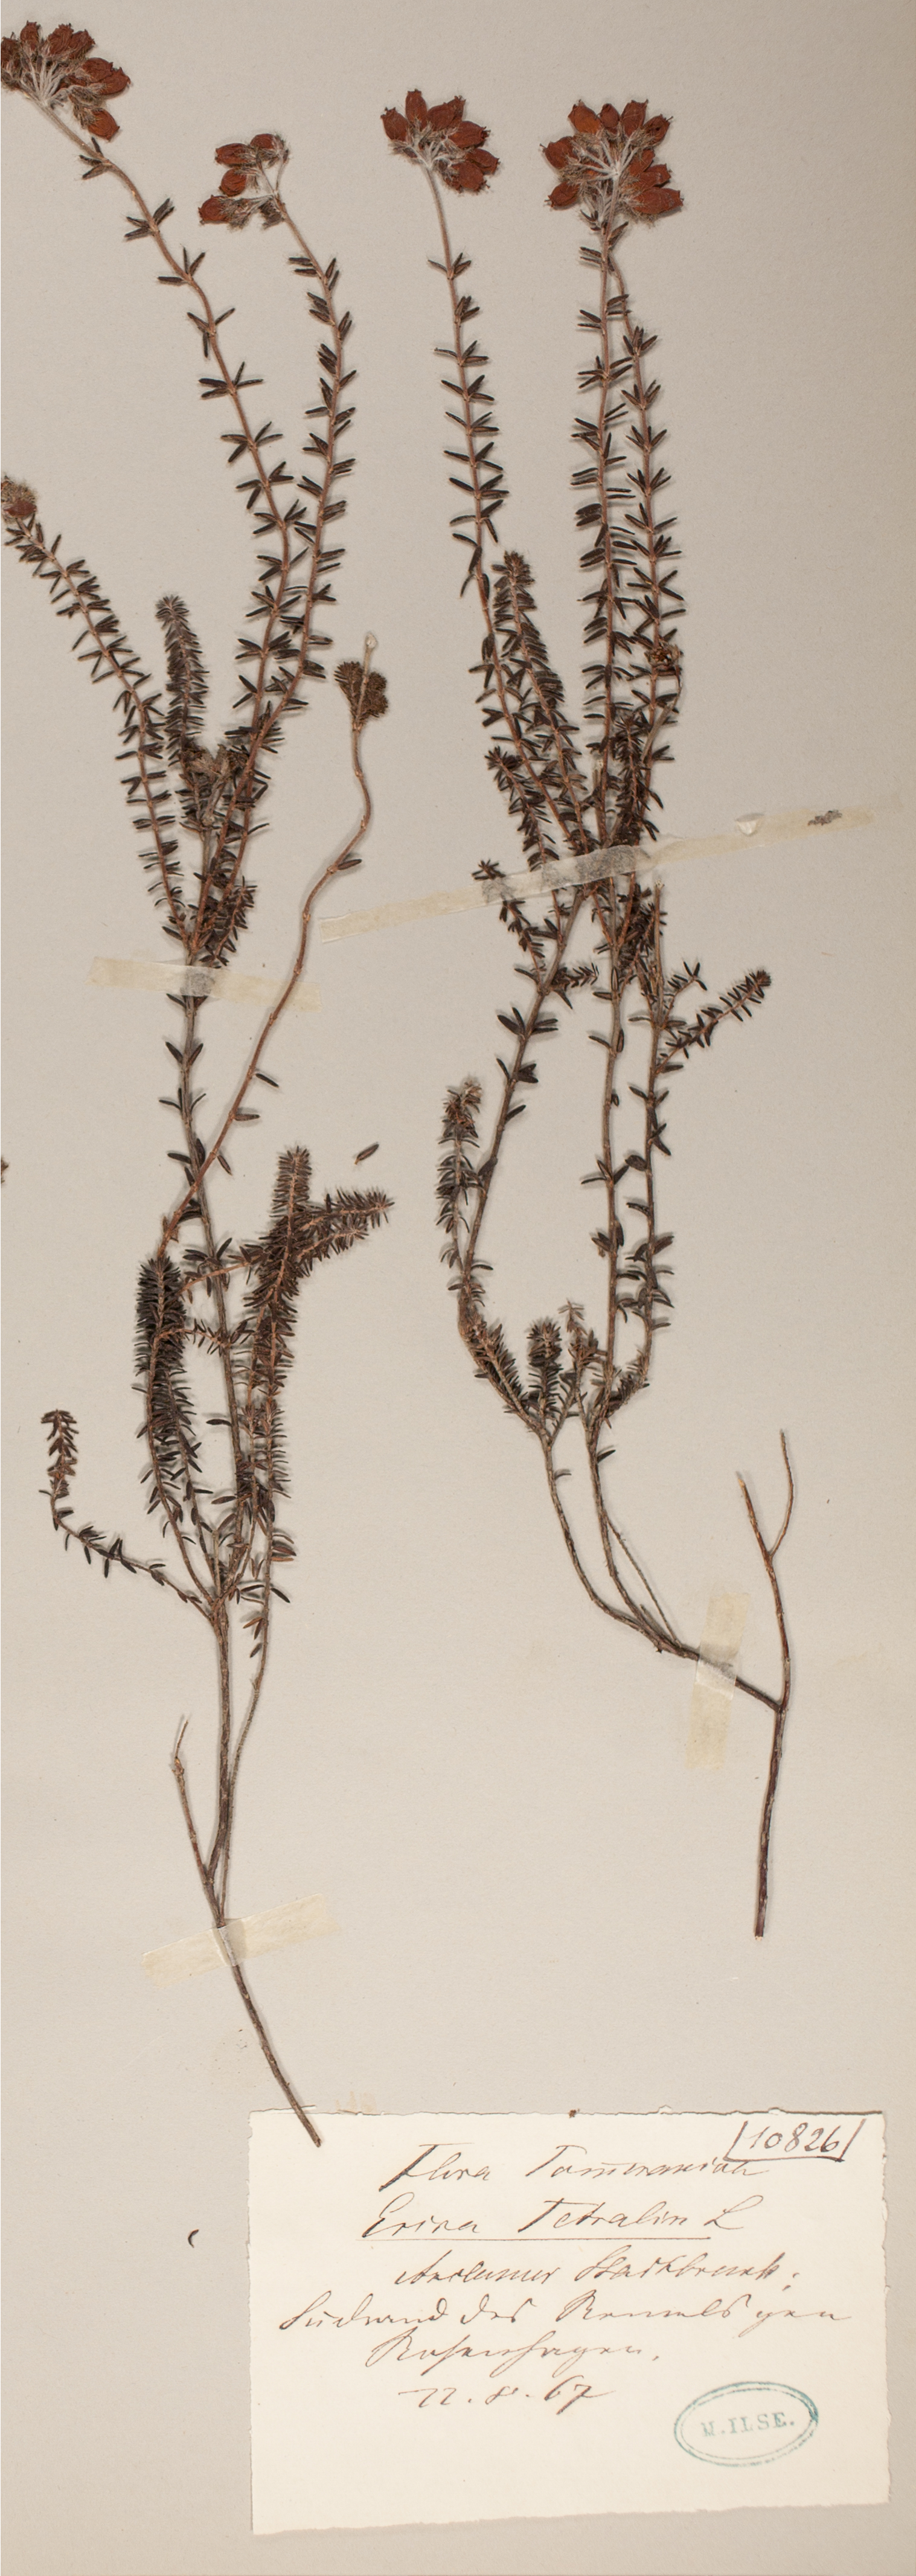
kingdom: Plantae
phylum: Tracheophyta
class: Magnoliopsida
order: Ericales
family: Ericaceae
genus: Erica
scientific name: Erica tetralix
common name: Cross-leaved heath
